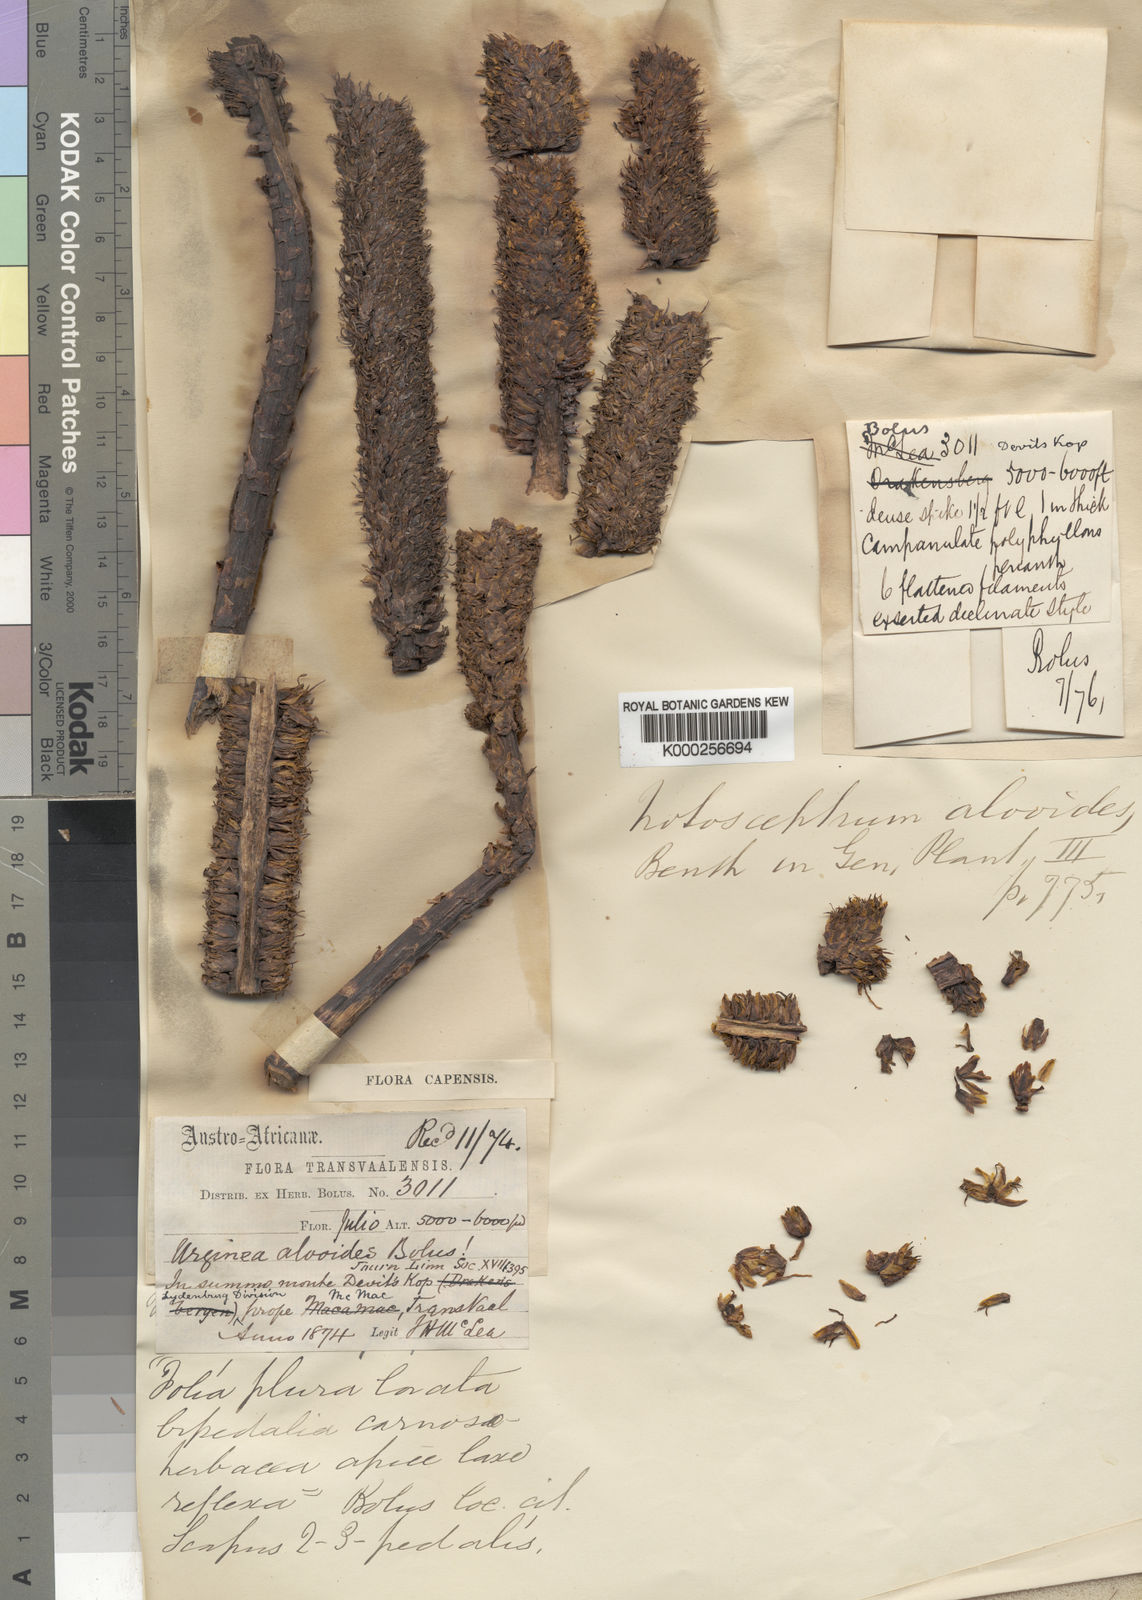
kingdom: Plantae
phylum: Tracheophyta
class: Liliopsida
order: Asparagales
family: Asphodelaceae
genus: Aloe
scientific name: Aloe alooides
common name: Graskop aloe
